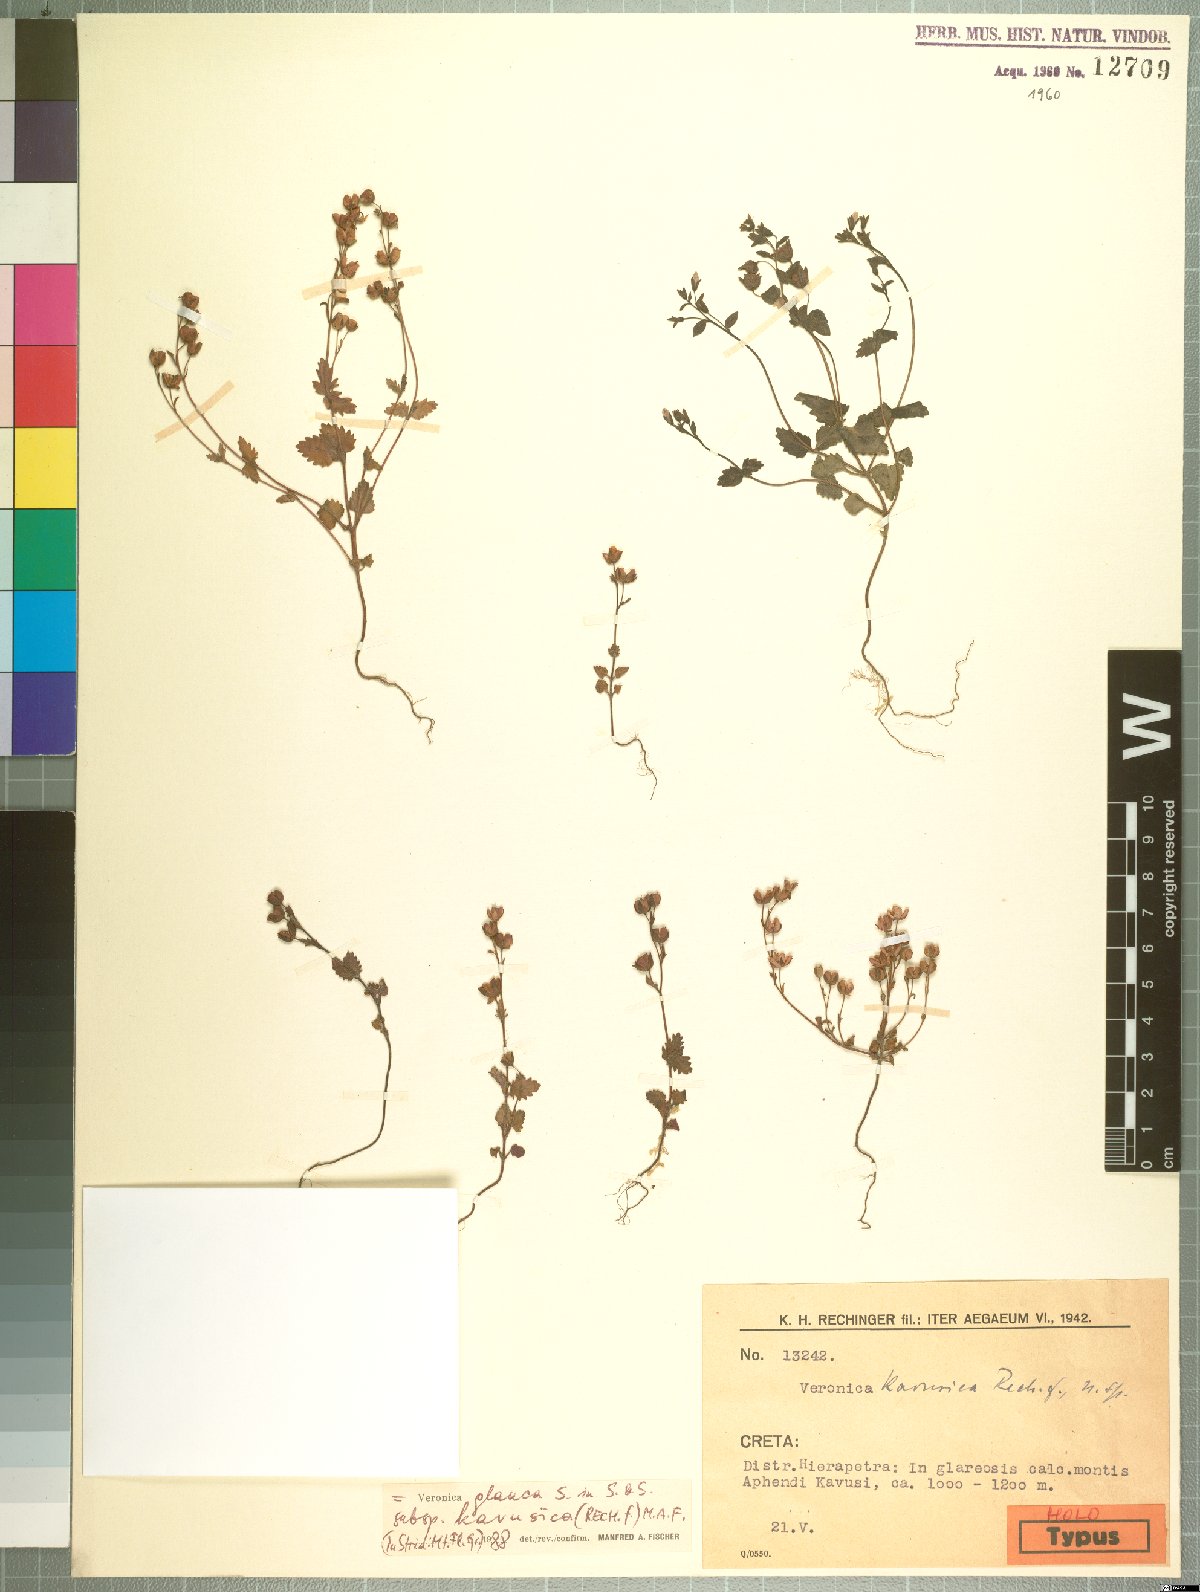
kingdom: Plantae
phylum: Tracheophyta
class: Magnoliopsida
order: Lamiales
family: Plantaginaceae
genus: Veronica
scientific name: Veronica glauca
